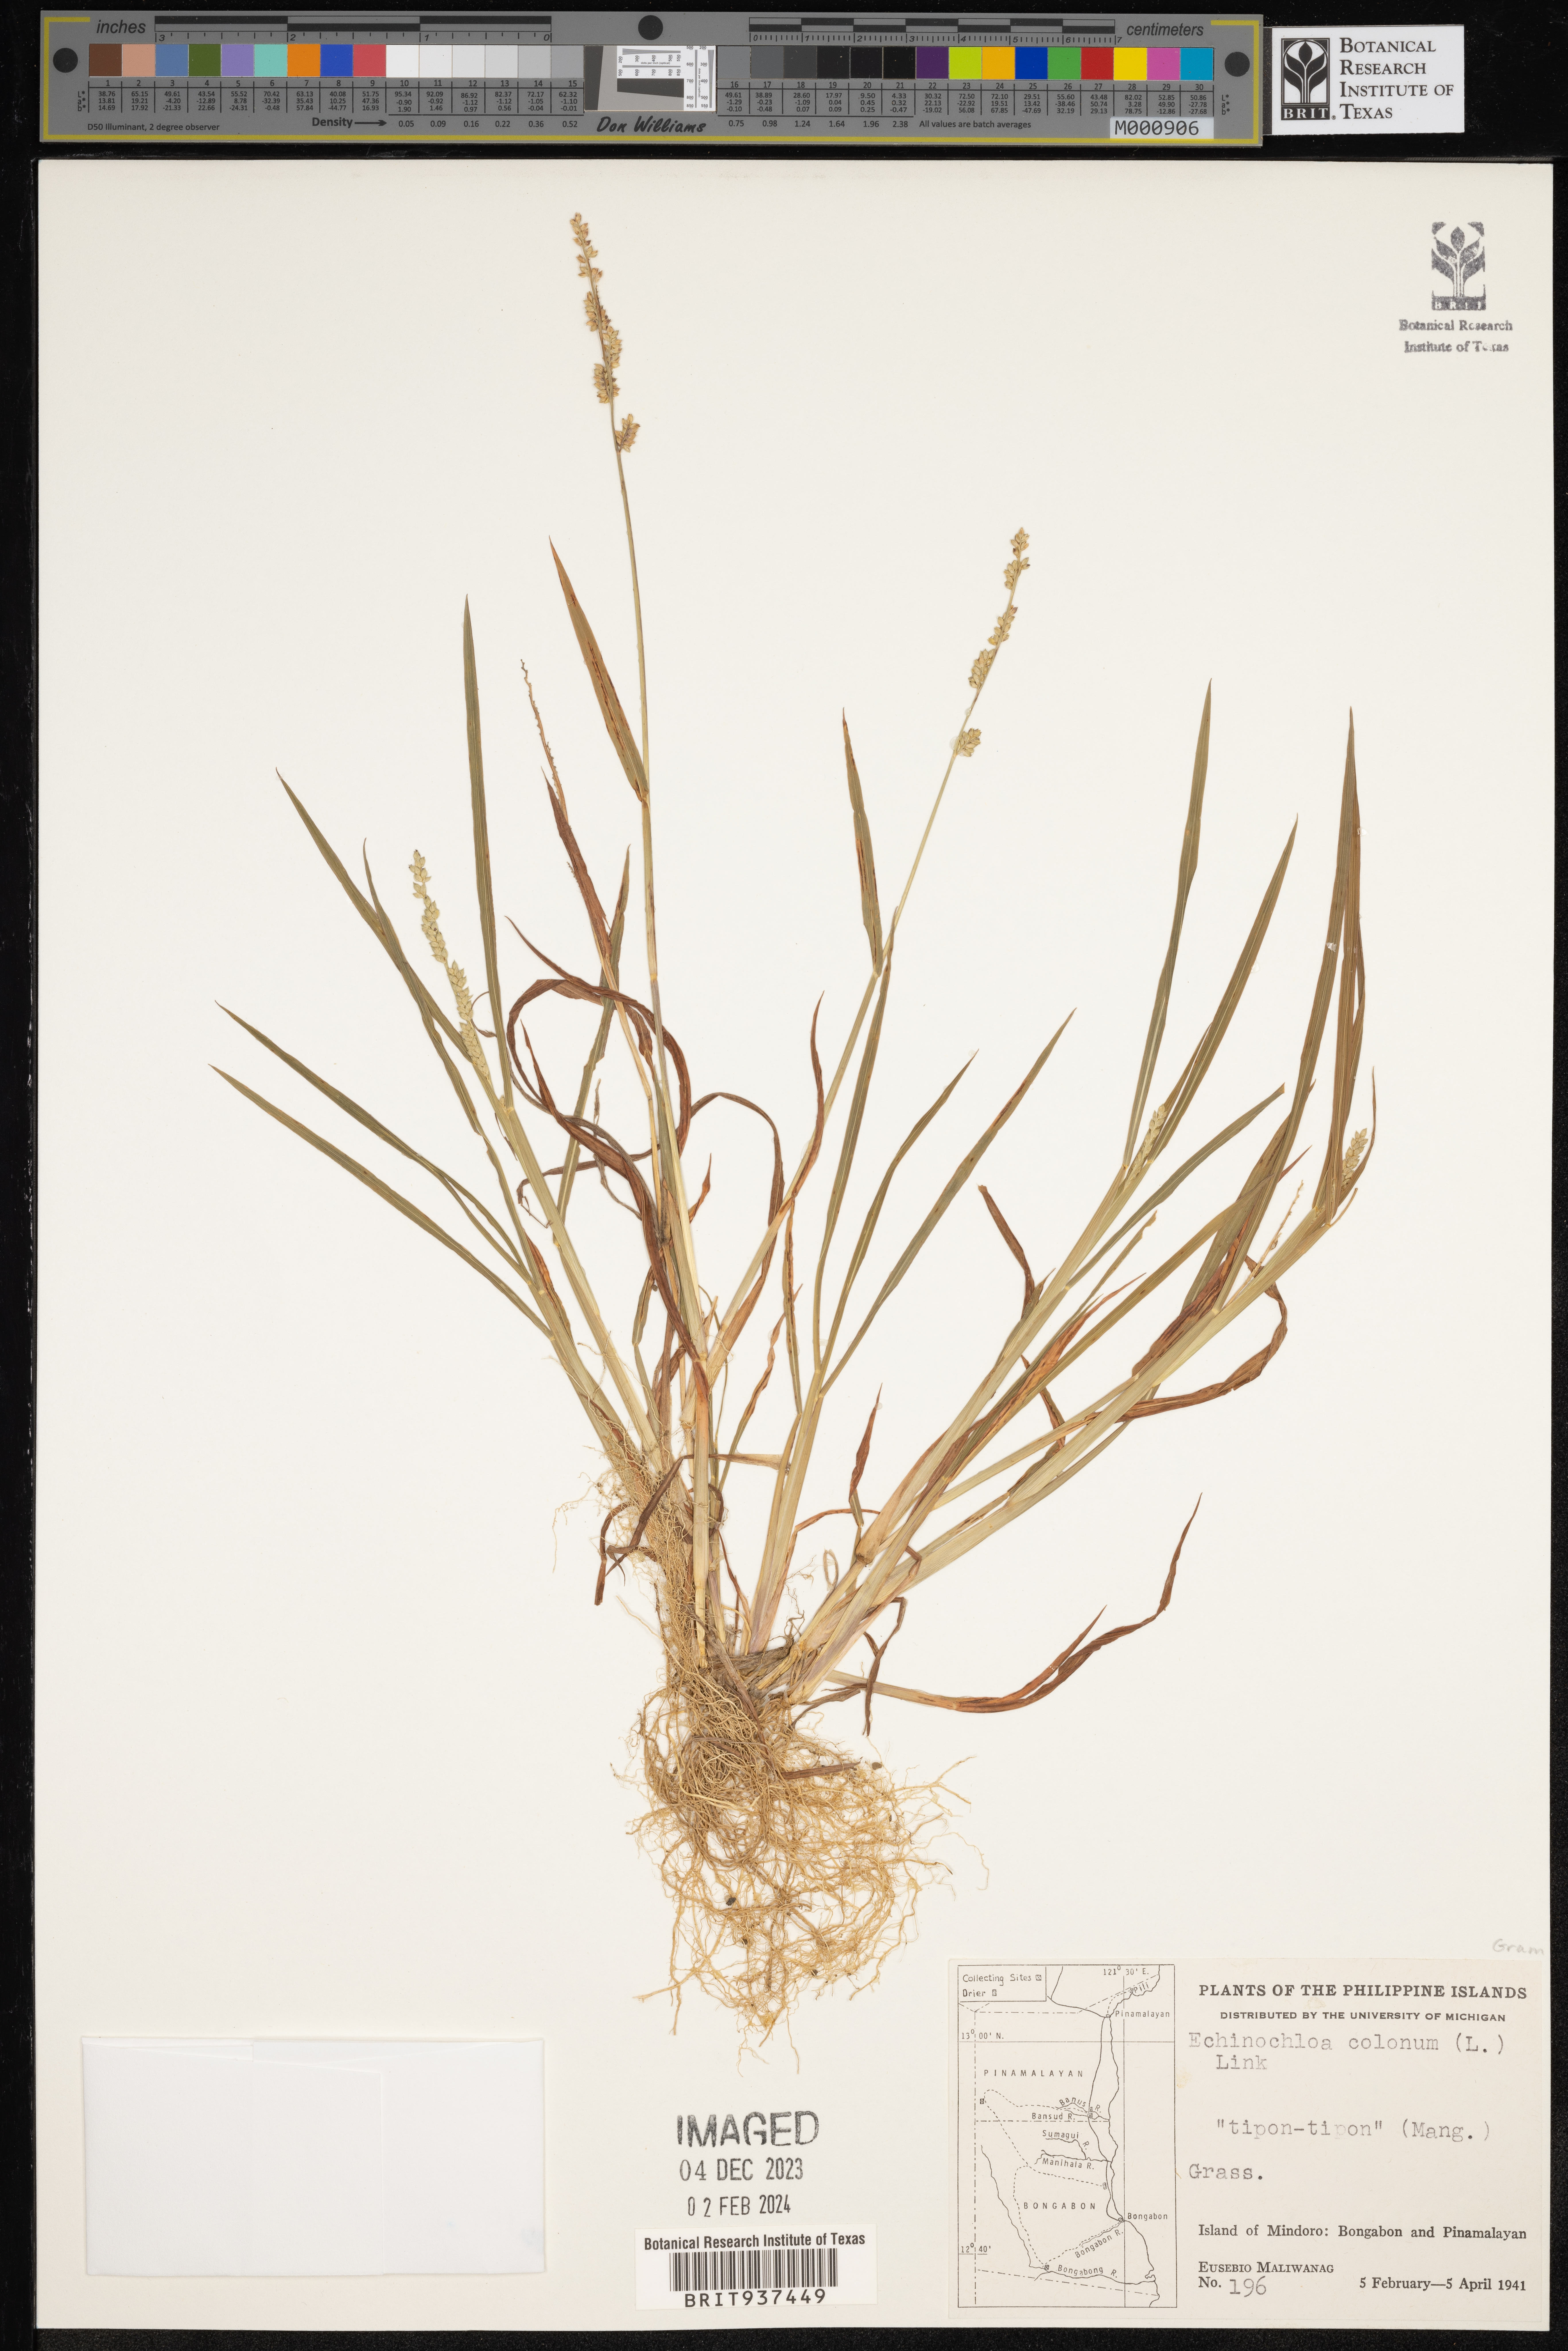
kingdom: Plantae
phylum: Tracheophyta
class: Liliopsida
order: Poales
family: Poaceae
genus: Echinochloa
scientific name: Echinochloa
